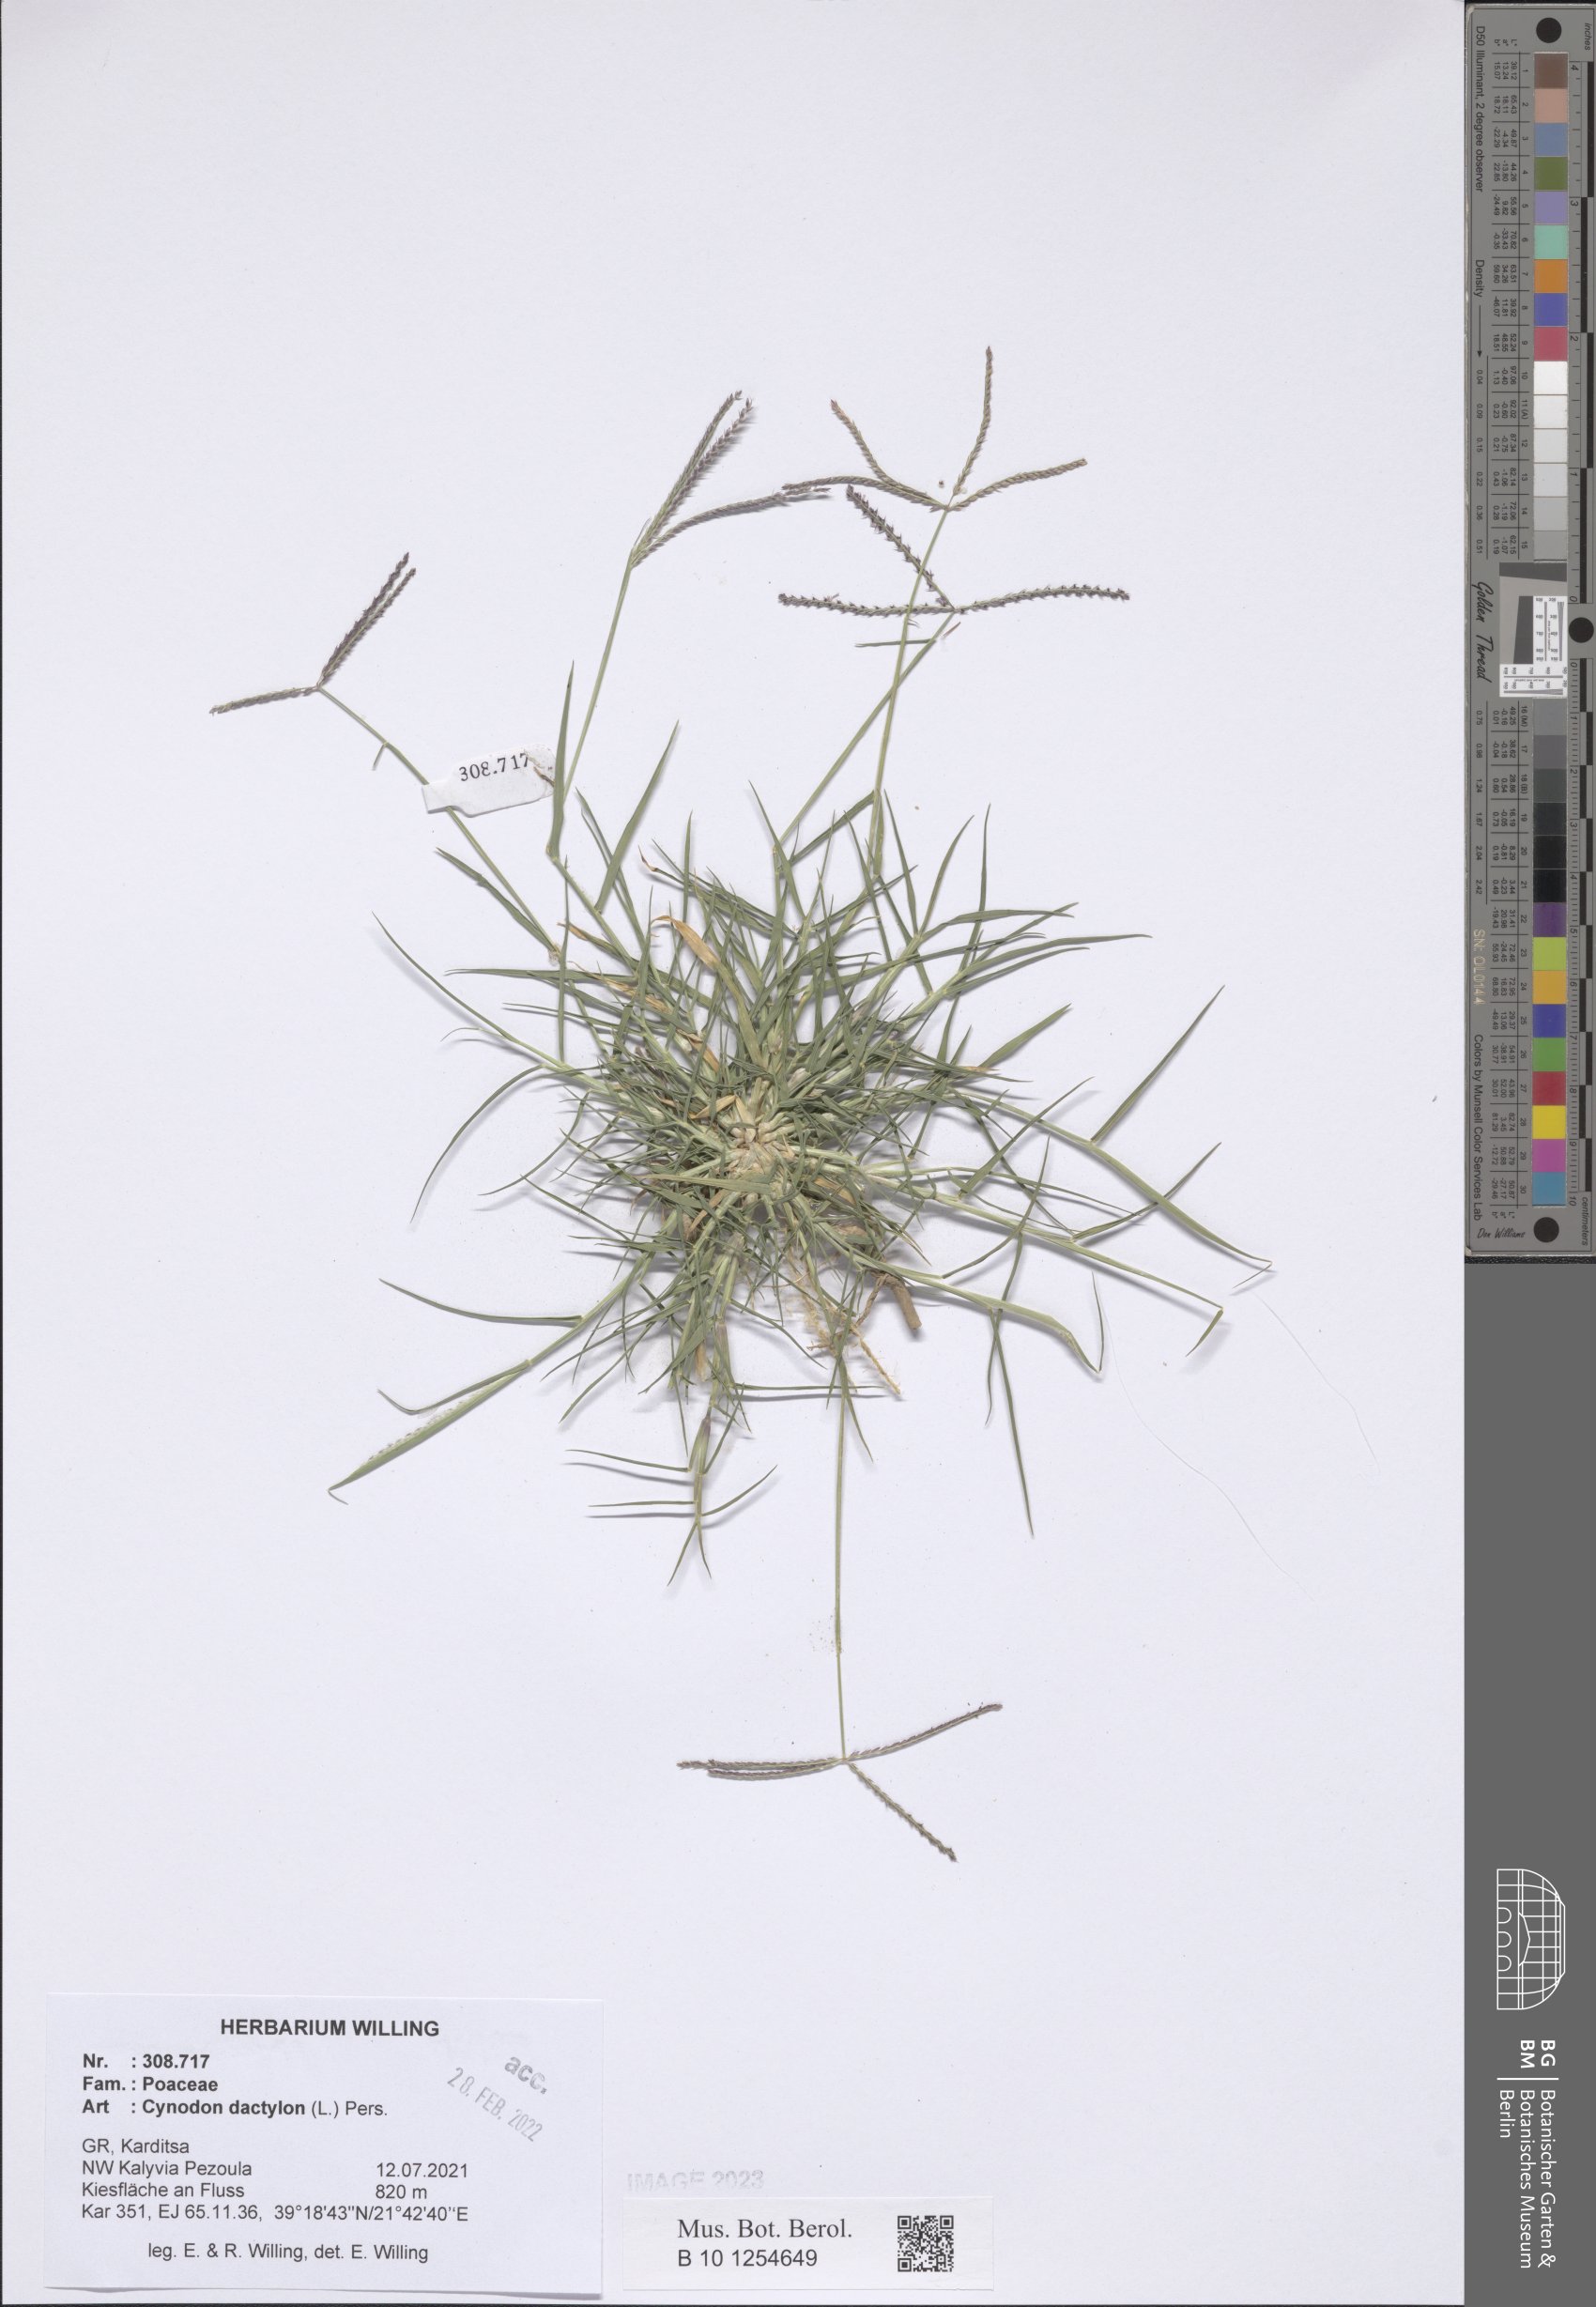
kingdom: Plantae
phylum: Tracheophyta
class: Liliopsida
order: Poales
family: Poaceae
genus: Cynodon
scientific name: Cynodon dactylon
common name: Bermuda grass
